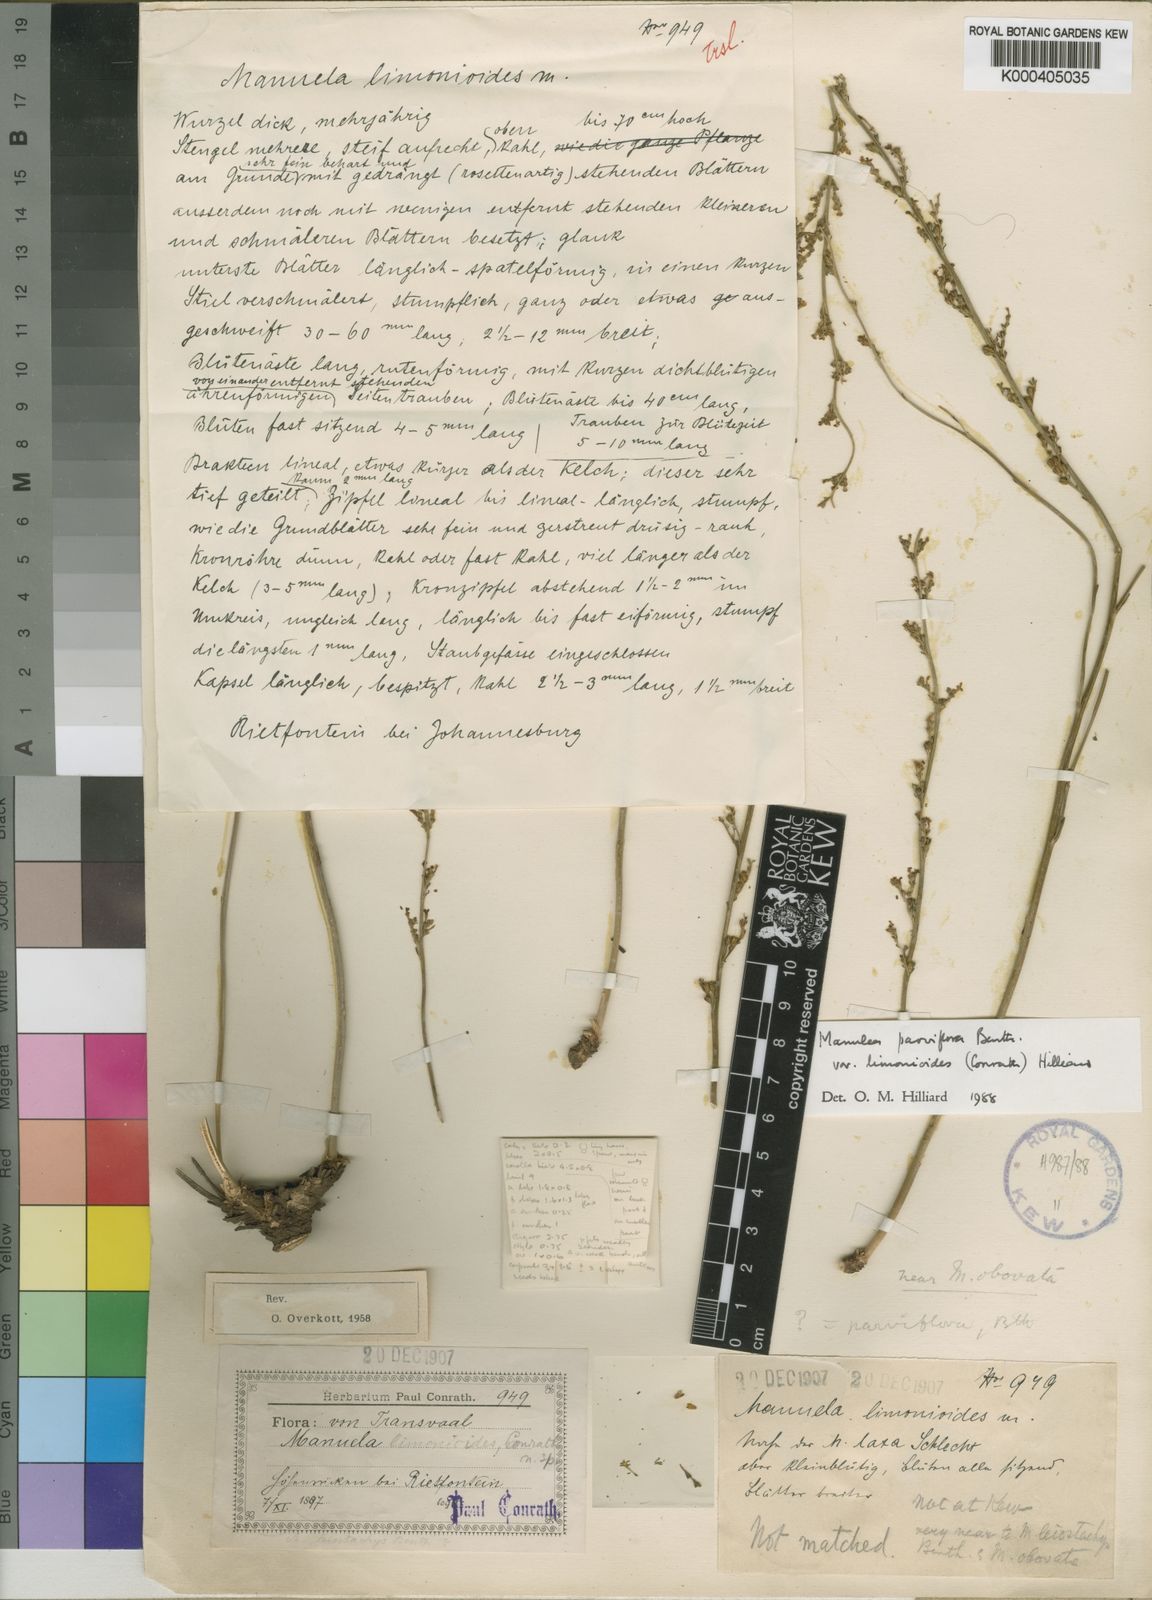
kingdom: Plantae
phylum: Tracheophyta
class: Magnoliopsida
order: Lamiales
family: Scrophulariaceae
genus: Manulea
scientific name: Manulea parviflora
